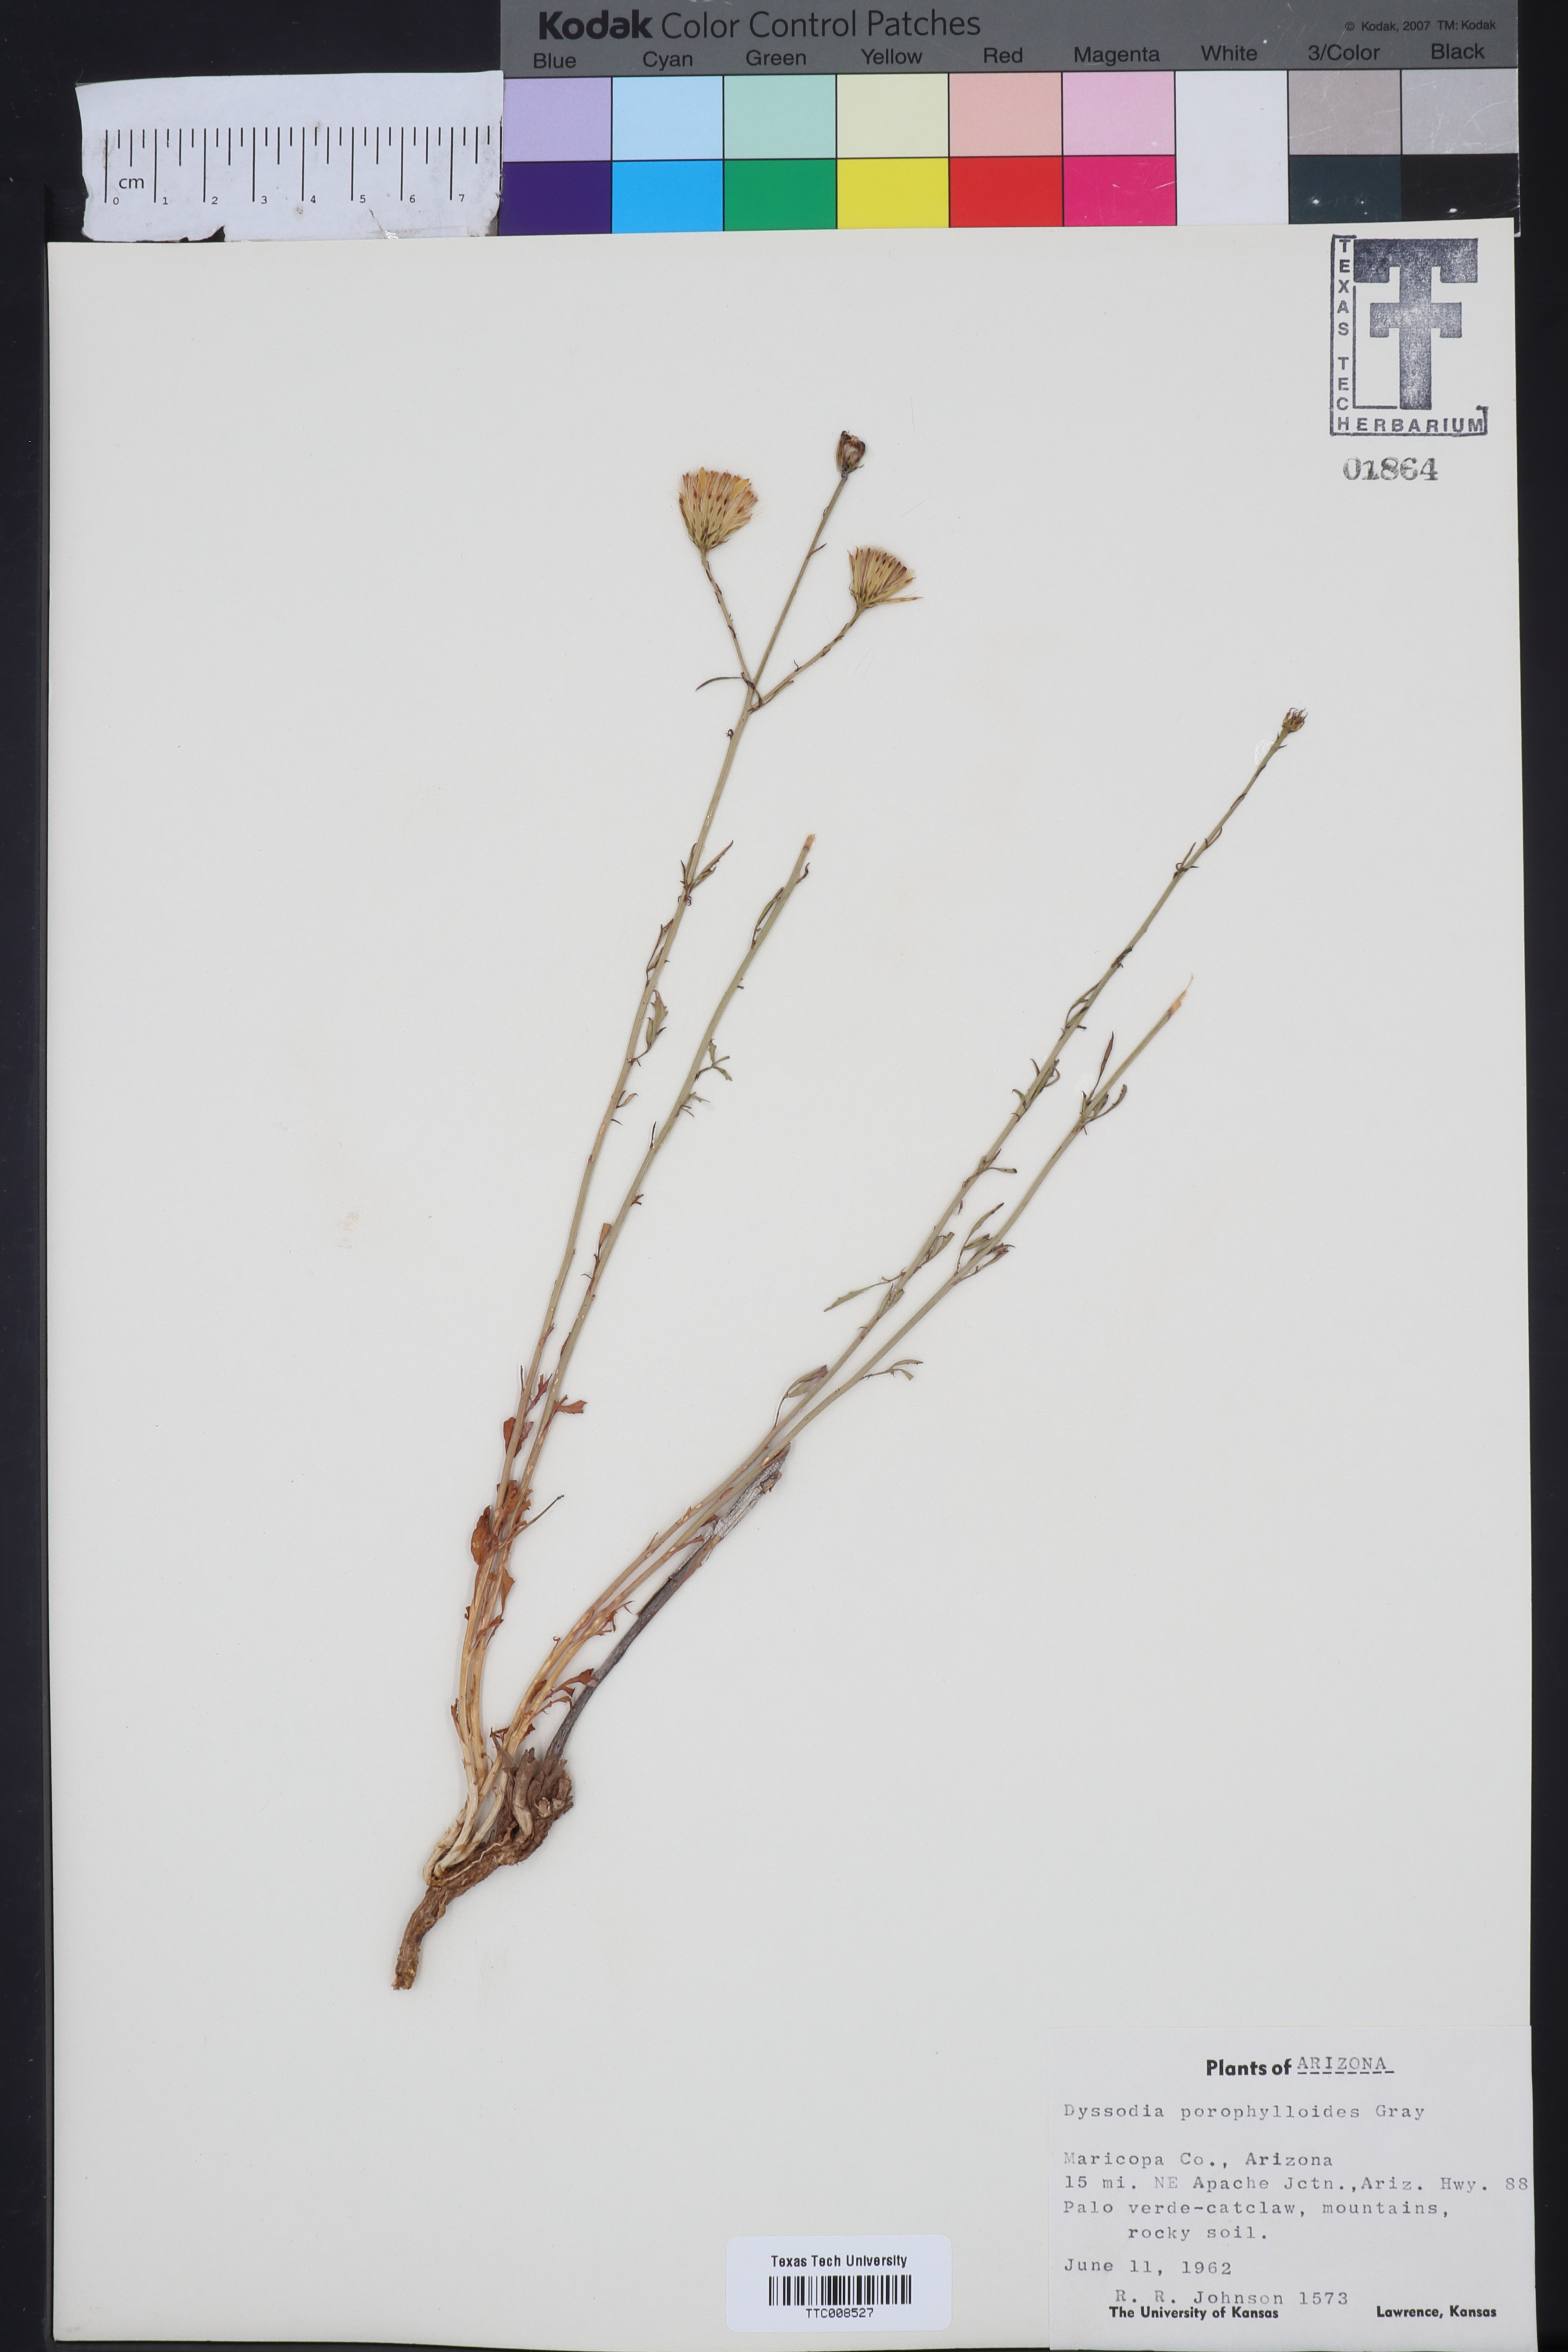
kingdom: Plantae
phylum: Tracheophyta
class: Magnoliopsida
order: Asterales
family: Asteraceae
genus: Adenophyllum
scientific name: Adenophyllum porophylloides
